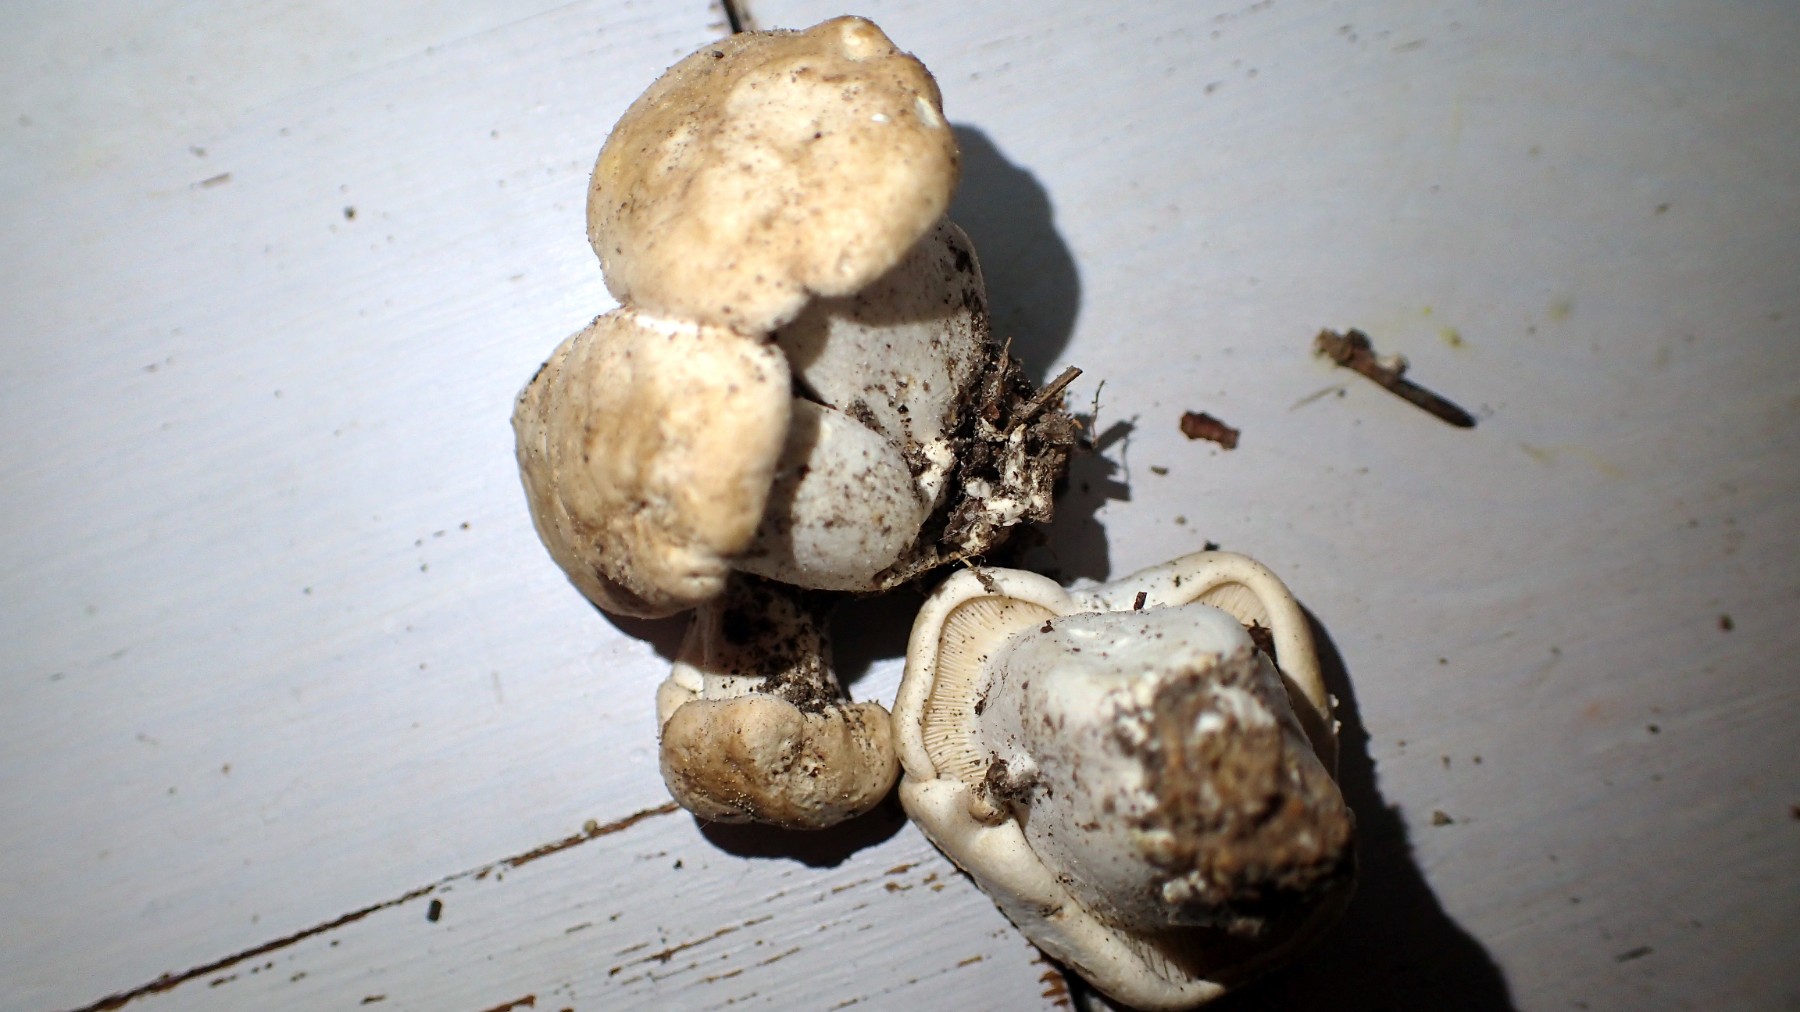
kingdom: Fungi
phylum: Basidiomycota
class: Agaricomycetes
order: Agaricales
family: Lyophyllaceae
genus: Calocybe
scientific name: Calocybe gambosa
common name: vårmusseron
